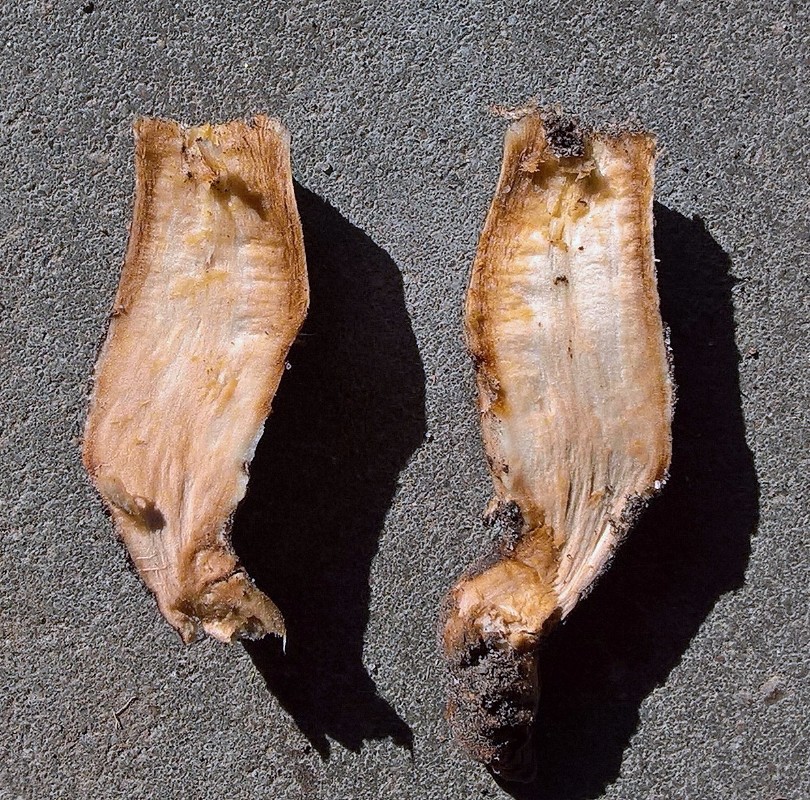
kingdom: Fungi
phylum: Basidiomycota
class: Agaricomycetes
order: Agaricales
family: Physalacriaceae
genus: Hymenopellis
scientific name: Hymenopellis radicata
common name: almindelig pælerodshat
